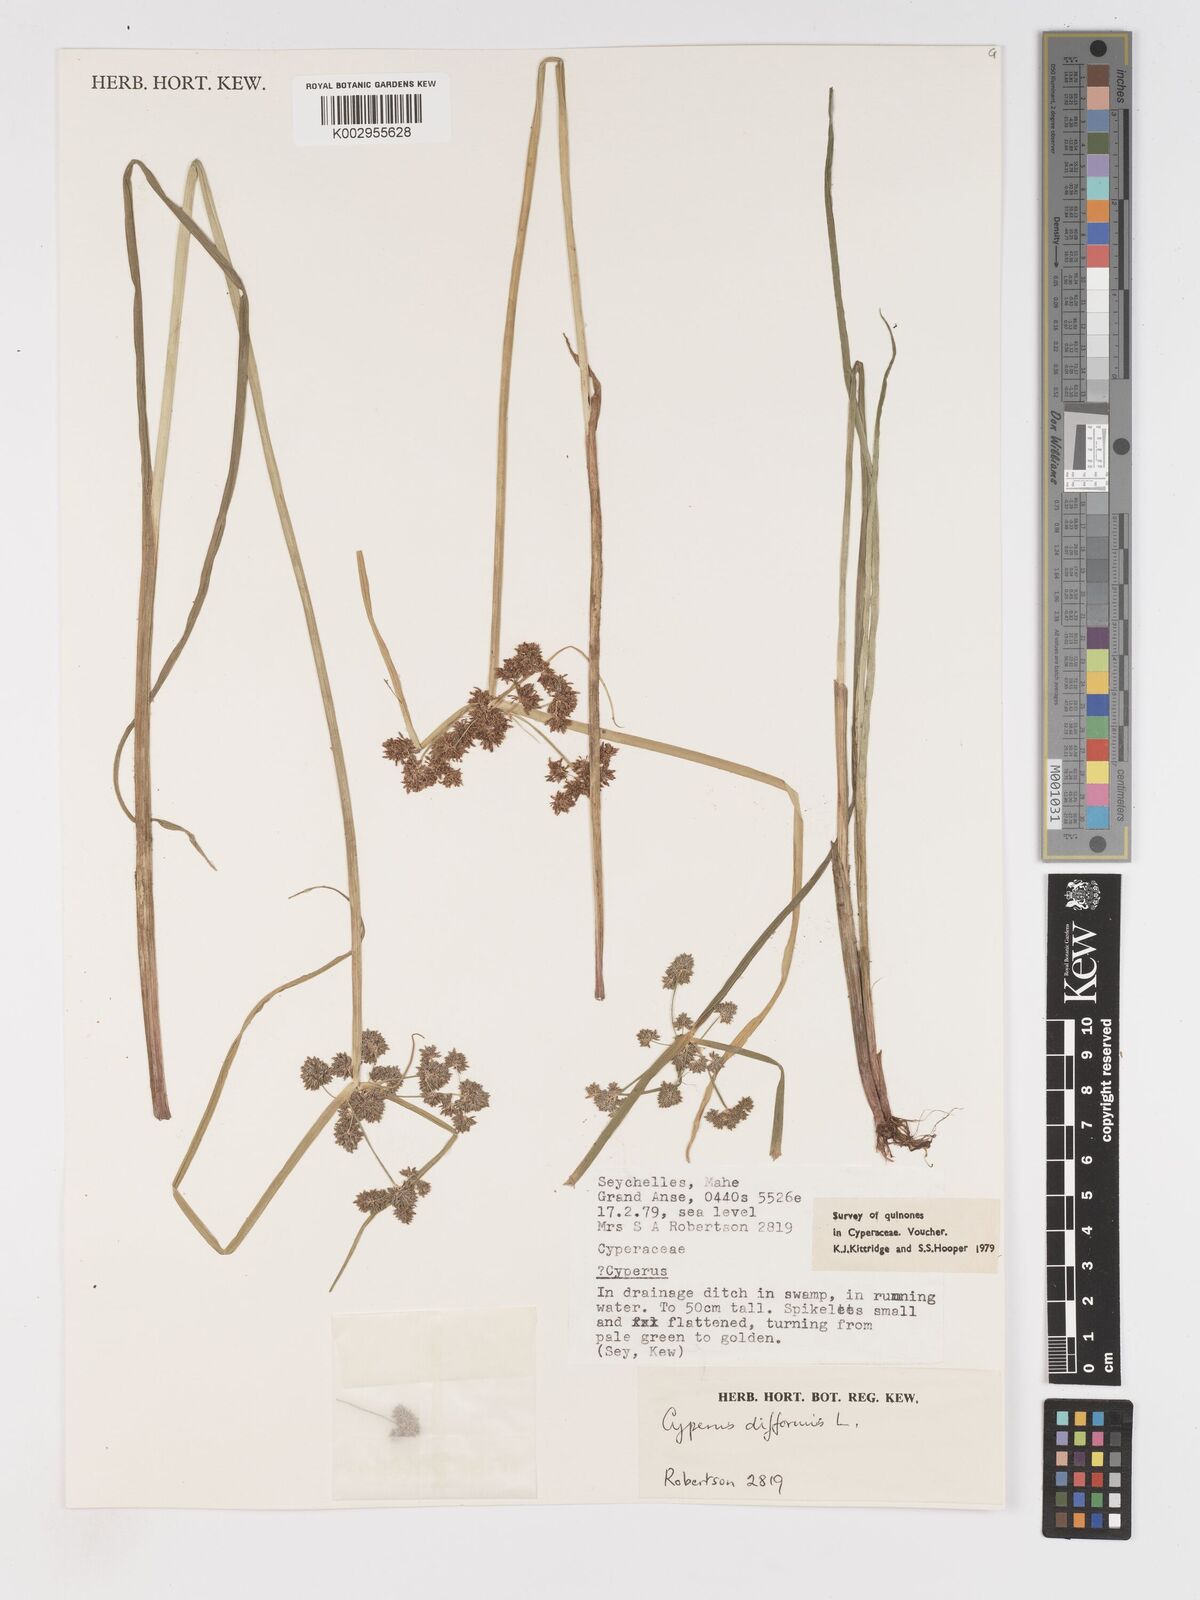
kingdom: Plantae
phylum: Tracheophyta
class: Liliopsida
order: Poales
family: Cyperaceae
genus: Cyperus
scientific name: Cyperus difformis
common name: Variable flatsedge
